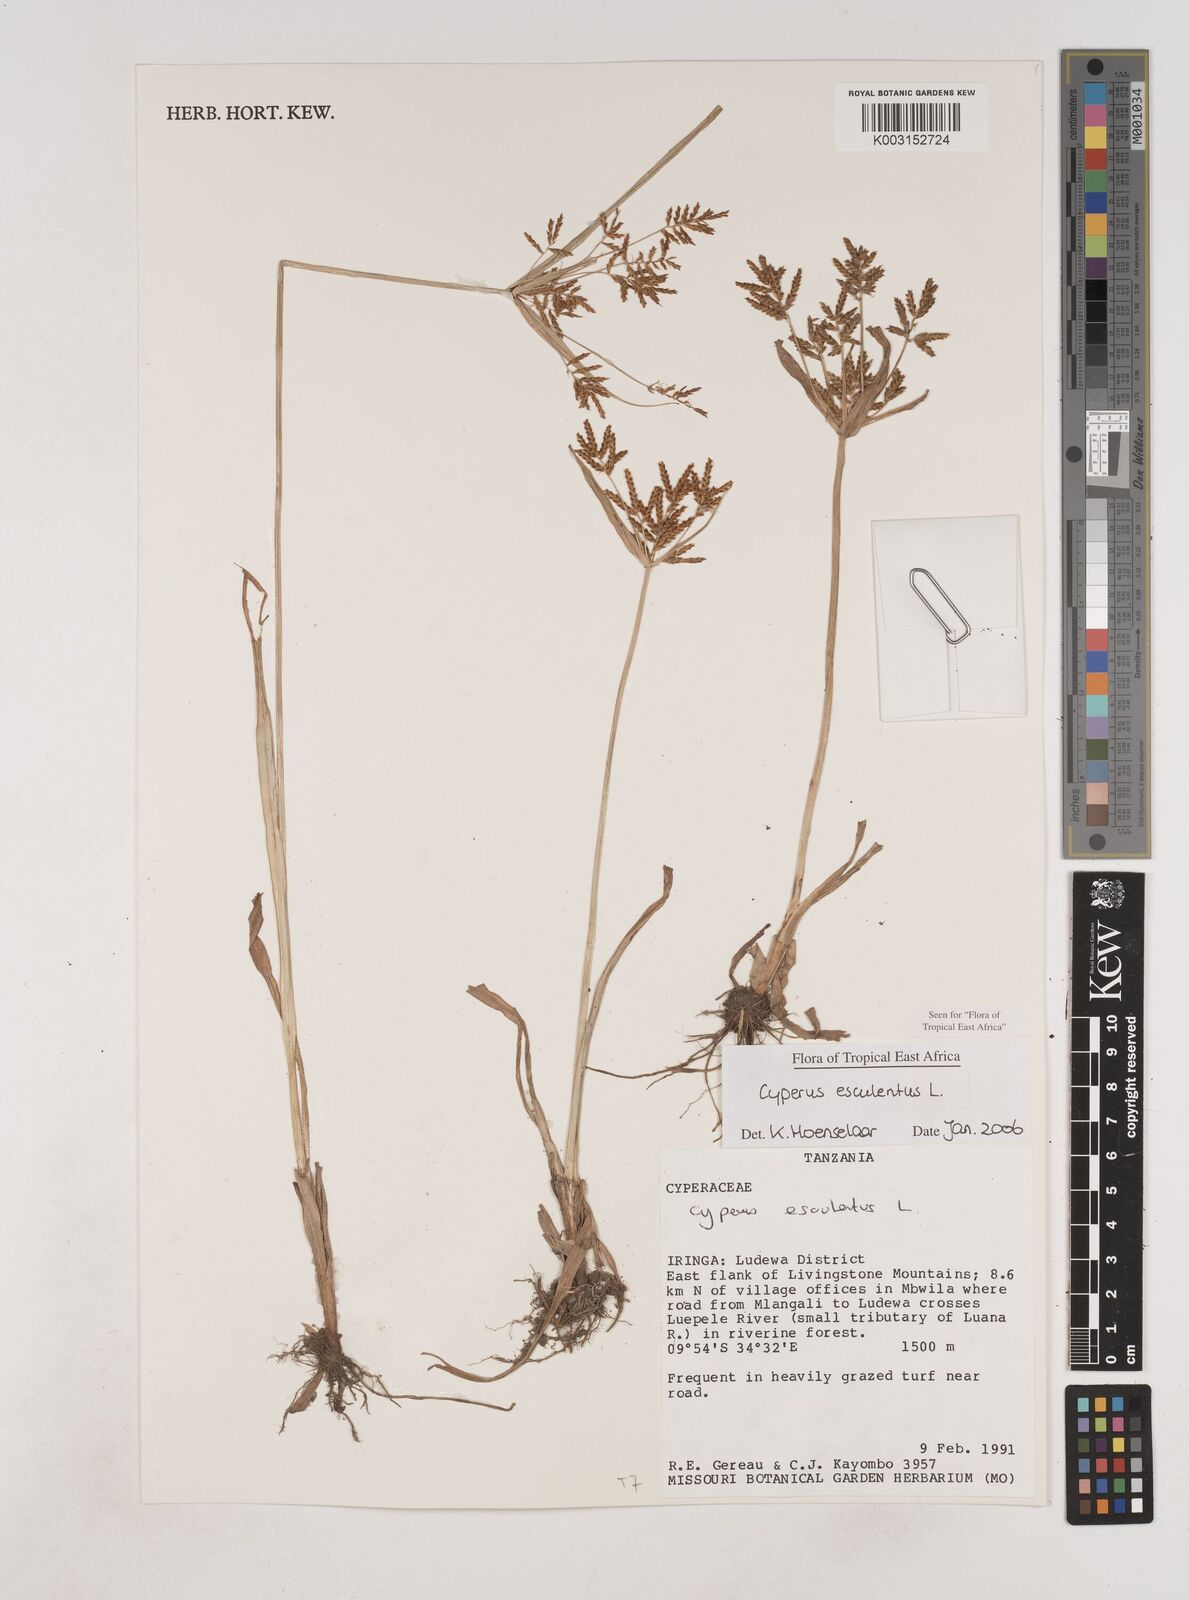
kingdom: Plantae
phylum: Tracheophyta
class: Liliopsida
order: Poales
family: Cyperaceae
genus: Cyperus
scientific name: Cyperus esculentus
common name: Yellow nutsedge
